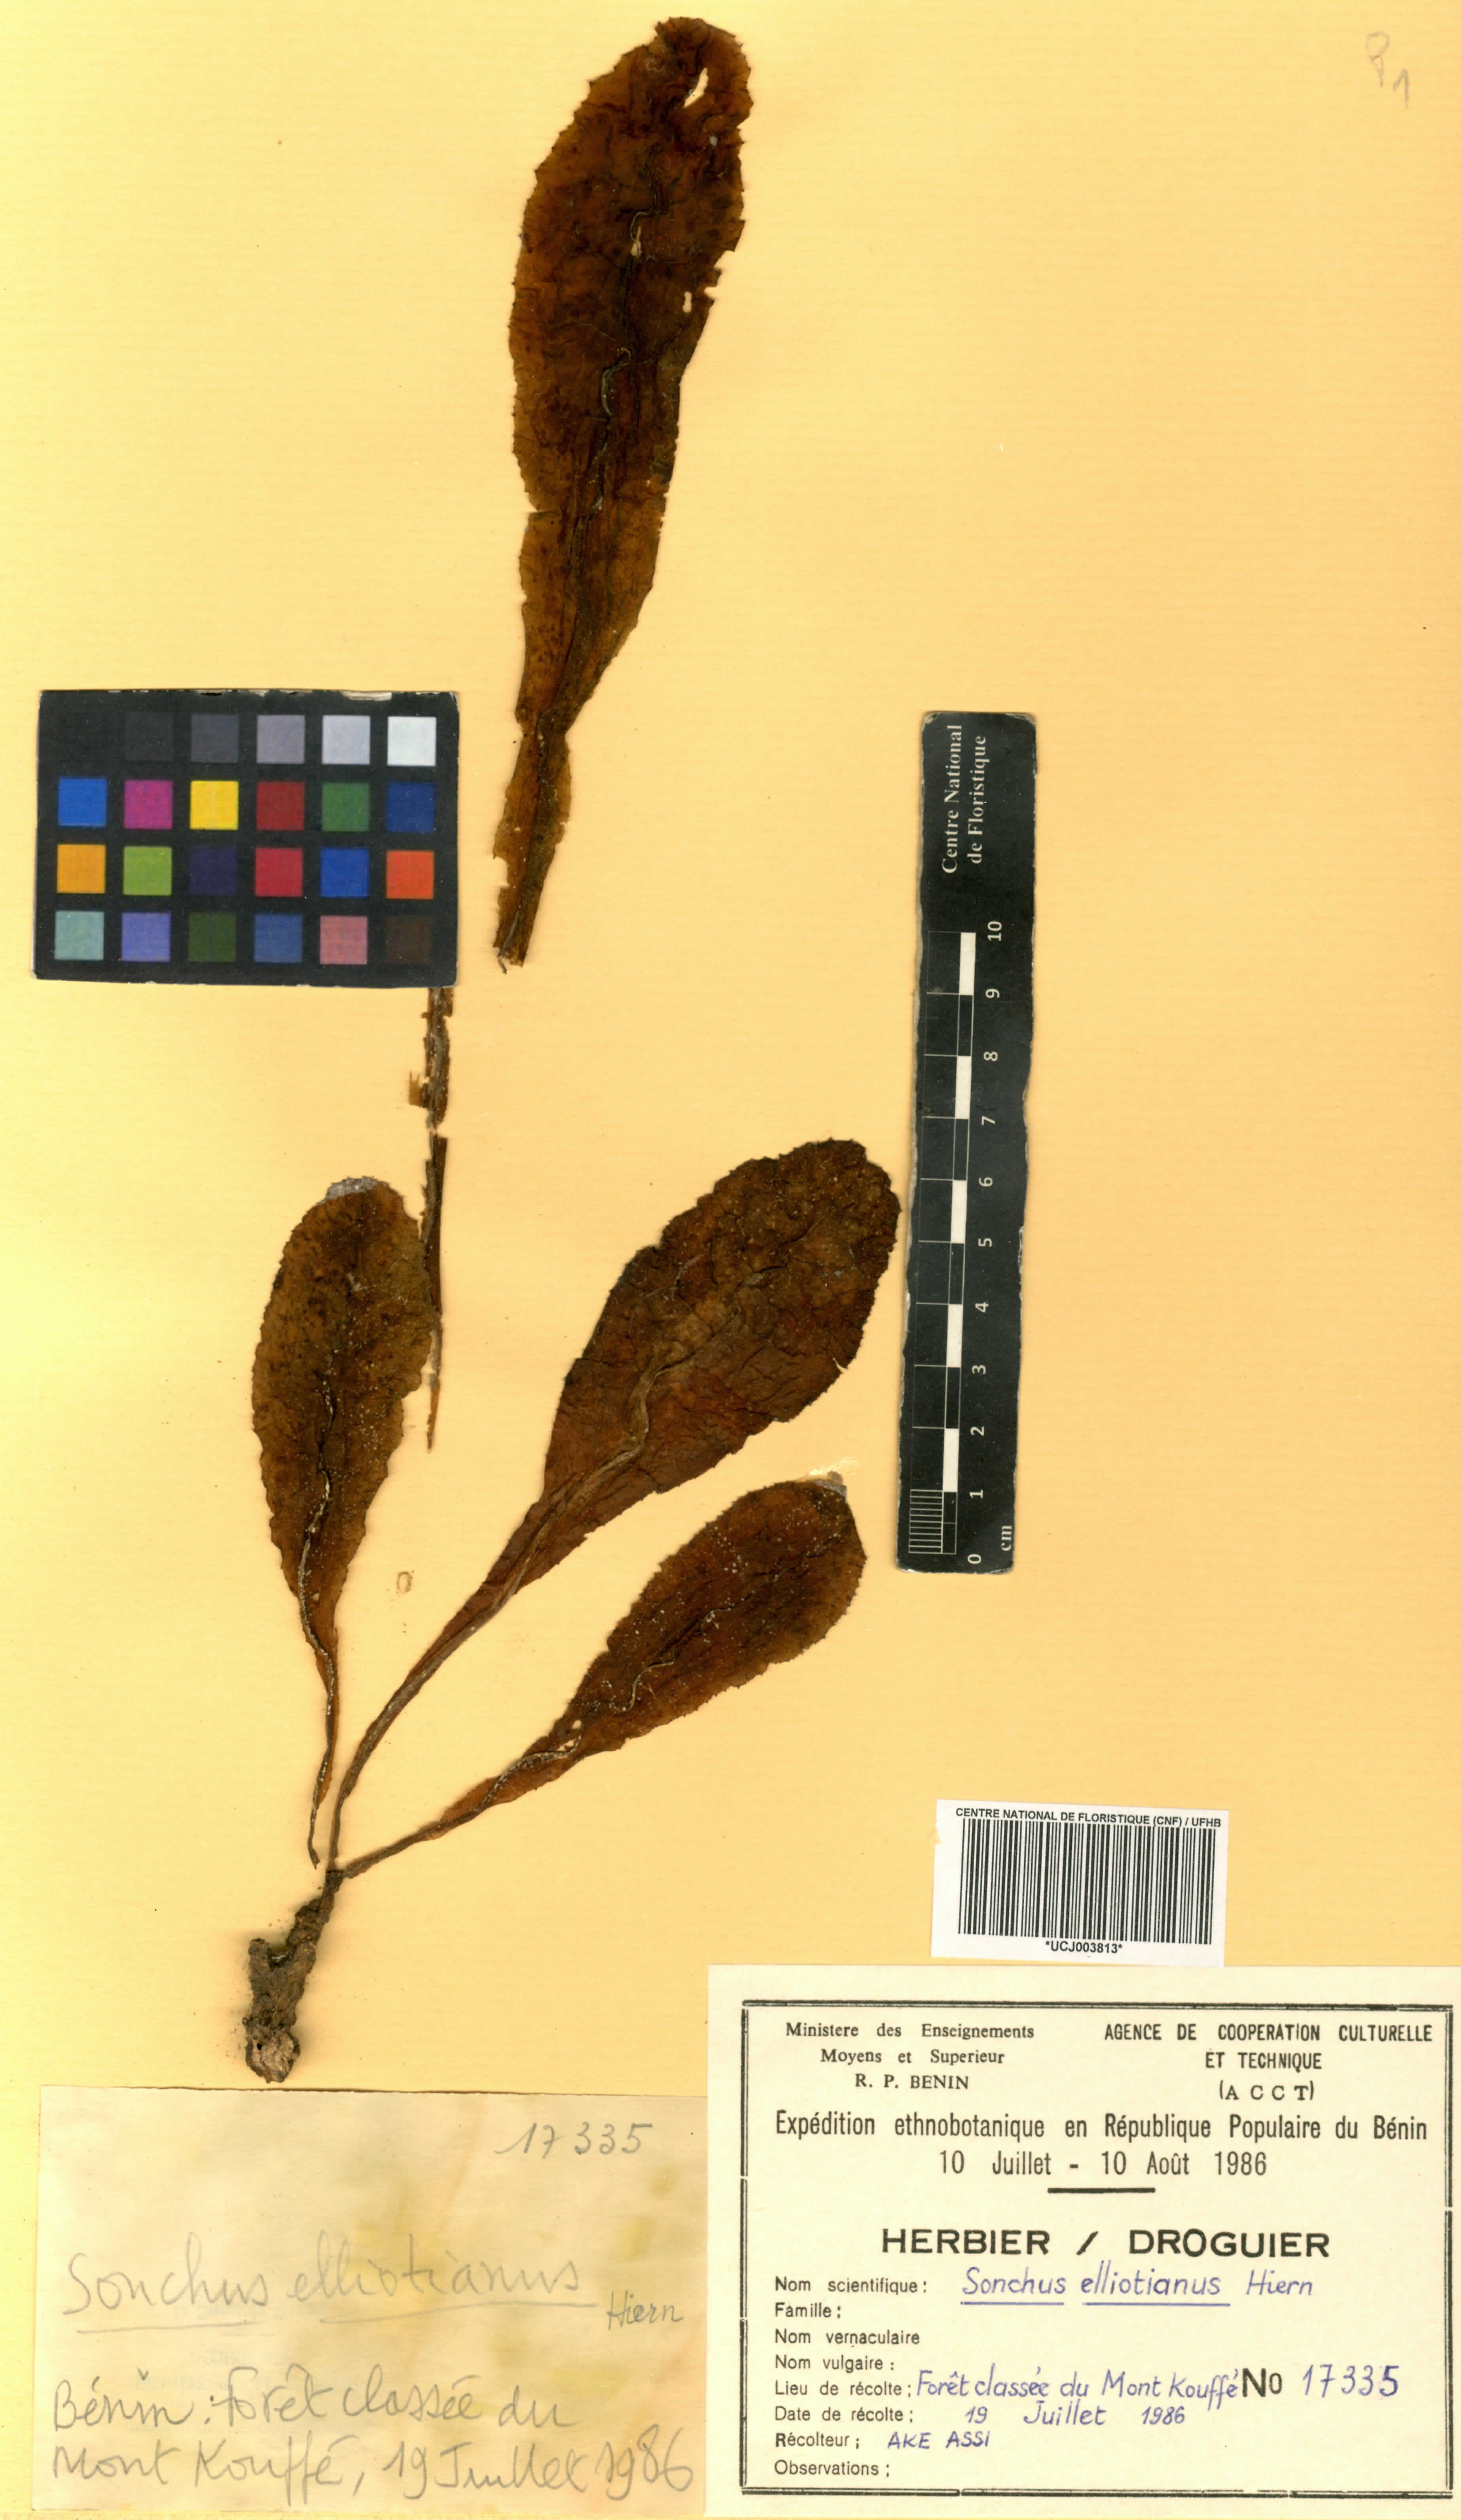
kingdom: Plantae
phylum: Tracheophyta
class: Magnoliopsida
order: Asterales
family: Asteraceae
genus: Launaea
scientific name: Launaea nana
